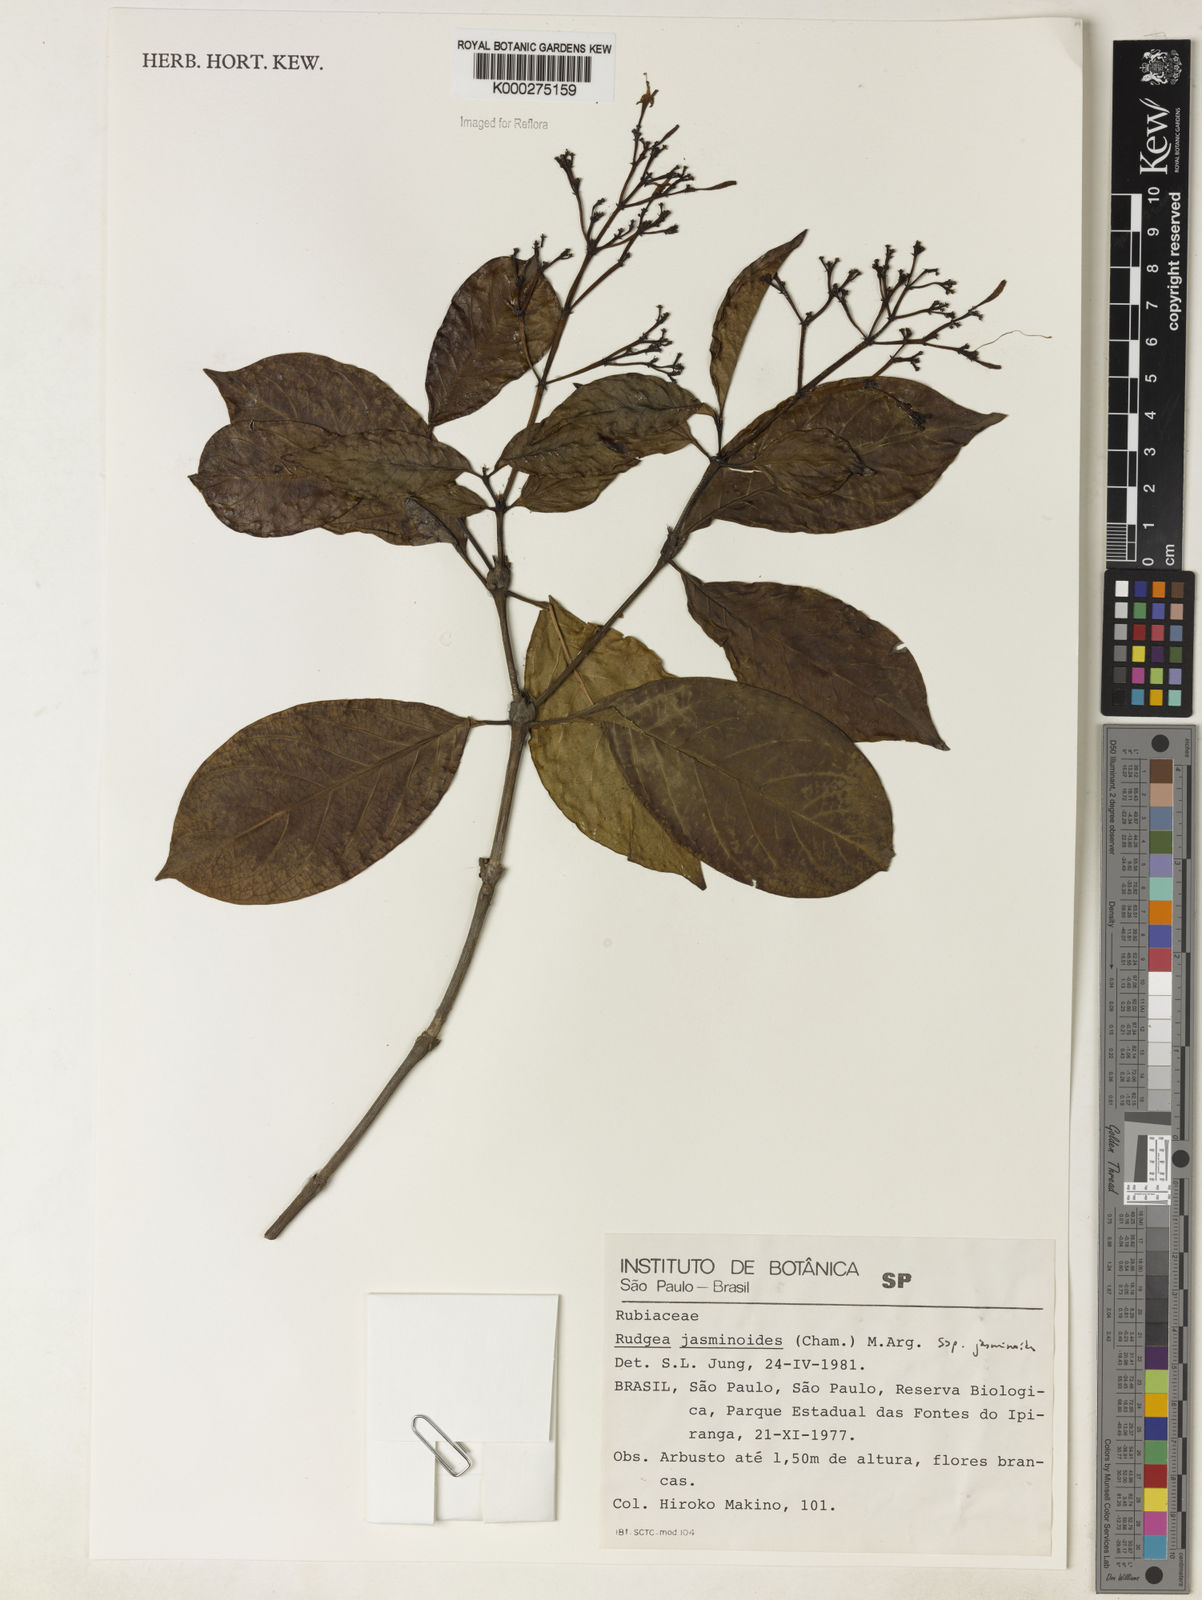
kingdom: Plantae
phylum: Tracheophyta
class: Magnoliopsida
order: Gentianales
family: Rubiaceae
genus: Rudgea
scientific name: Rudgea jasminoides
